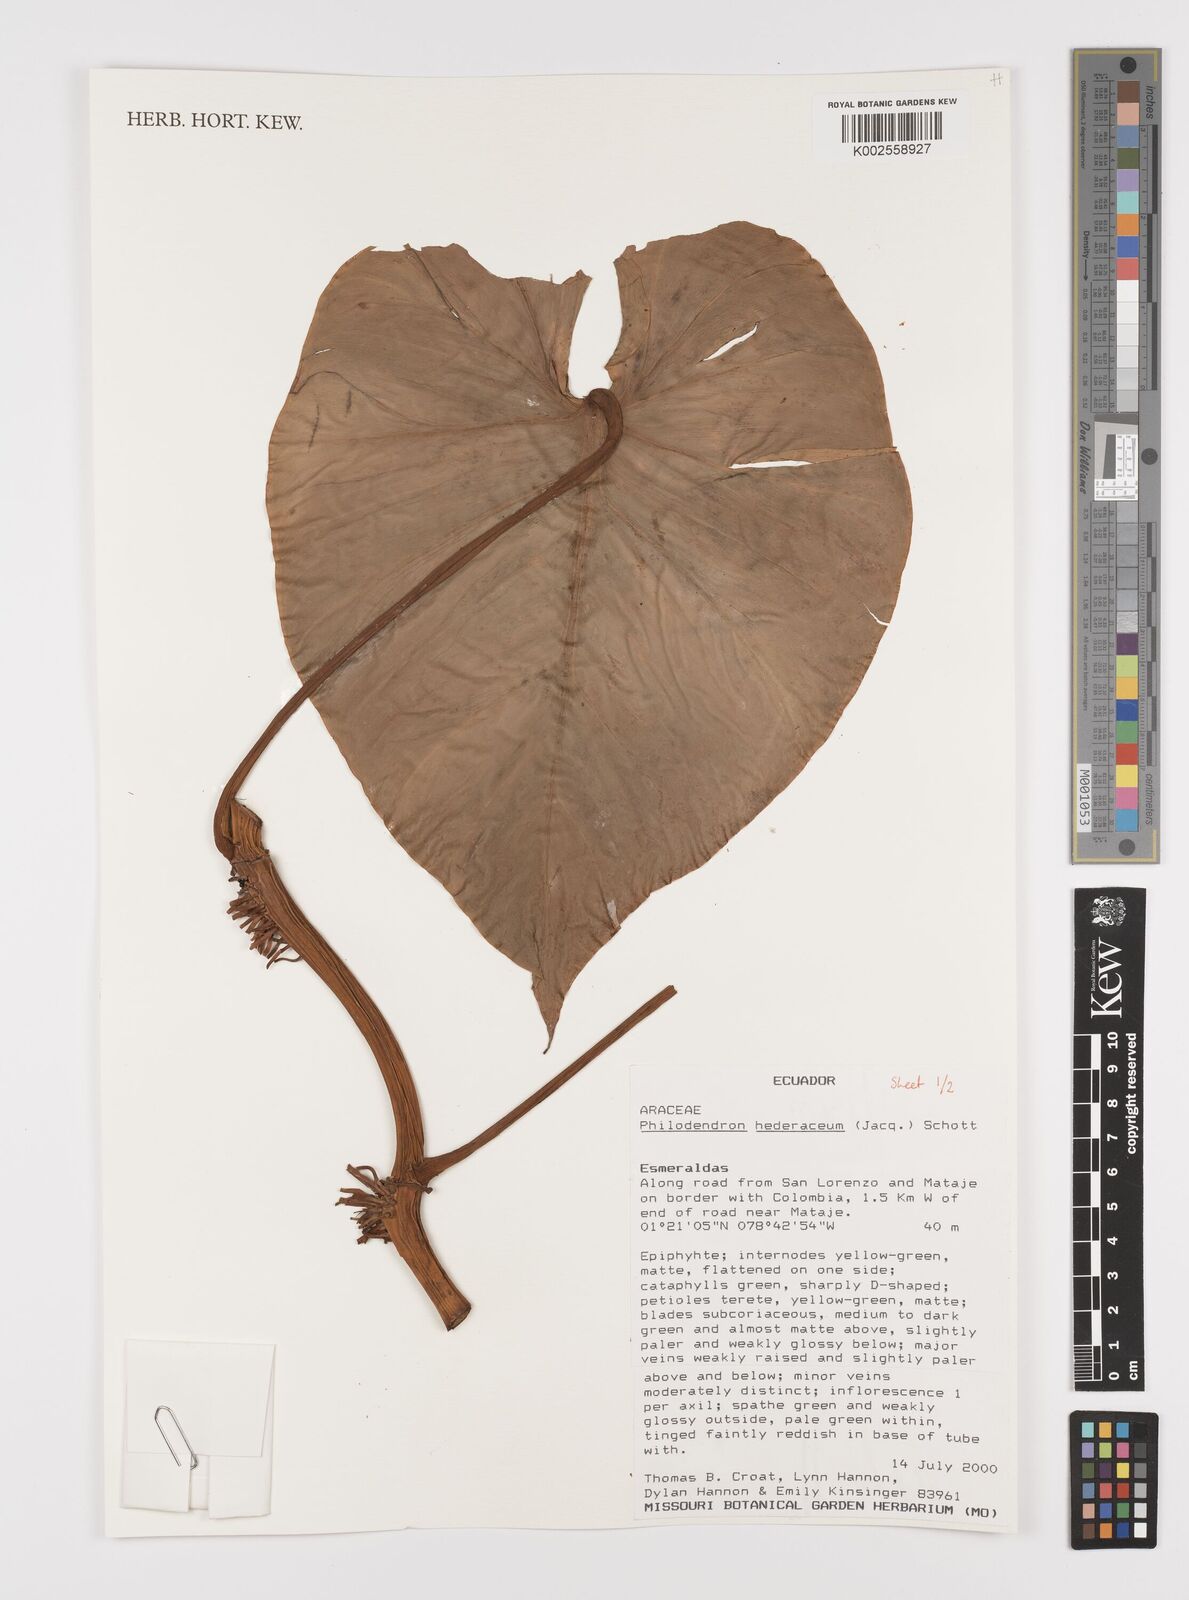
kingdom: Plantae
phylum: Tracheophyta
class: Liliopsida
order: Alismatales
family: Araceae
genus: Philodendron
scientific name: Philodendron hederaceum
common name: Vilevine
